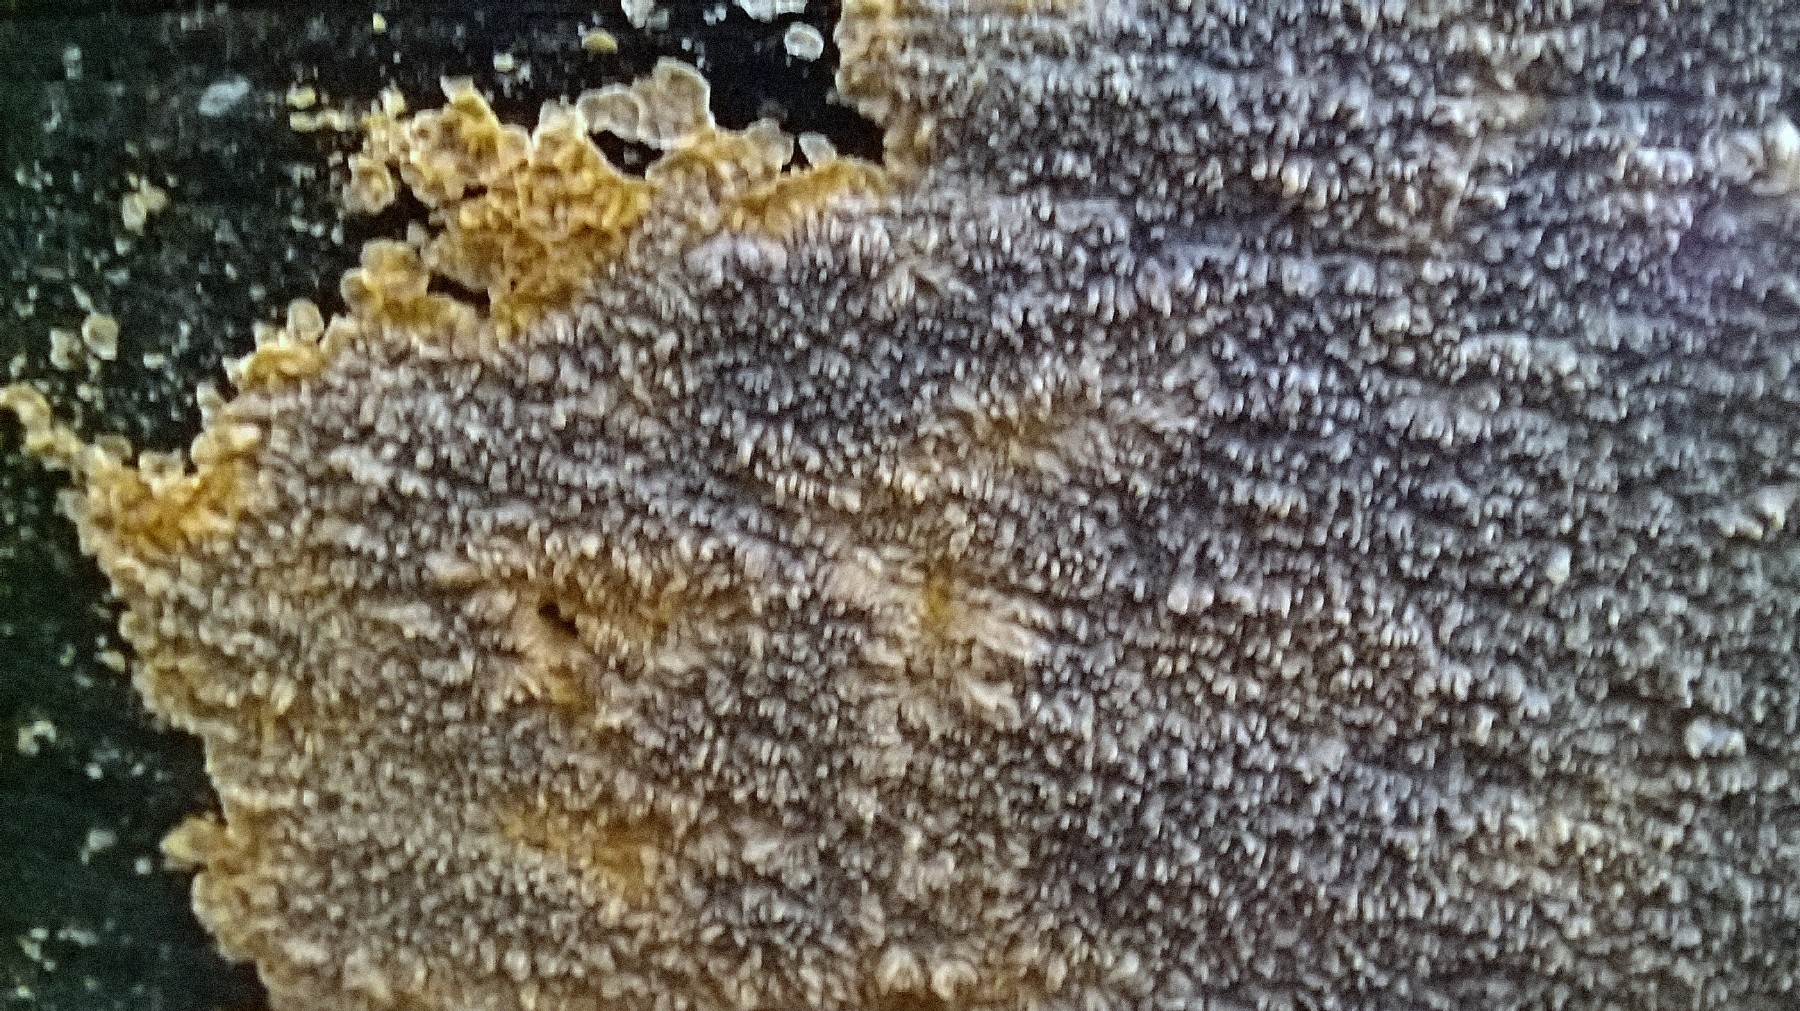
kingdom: Fungi
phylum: Basidiomycota
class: Agaricomycetes
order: Polyporales
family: Meruliaceae
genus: Phlebia
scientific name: Phlebia radiata
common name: stråle-åresvamp
